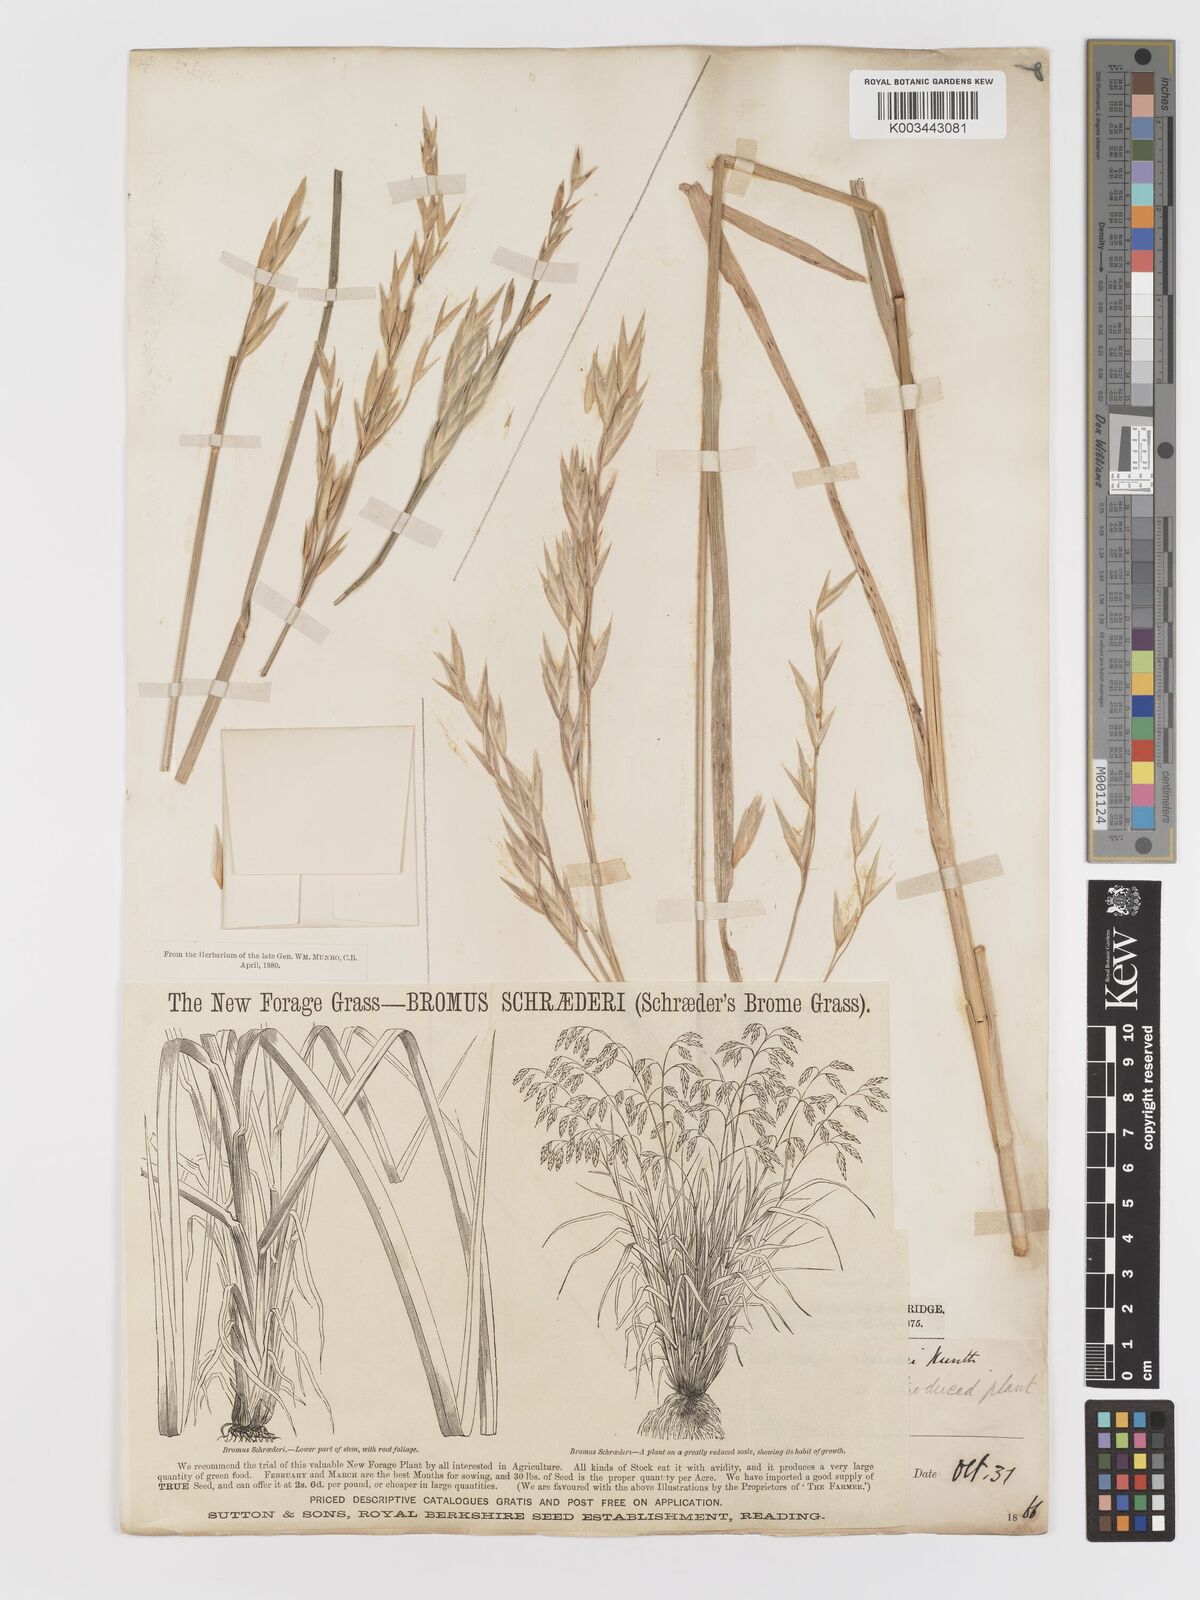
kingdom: Plantae
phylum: Tracheophyta
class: Liliopsida
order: Poales
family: Poaceae
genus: Bromus
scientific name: Bromus catharticus
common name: Rescuegrass
